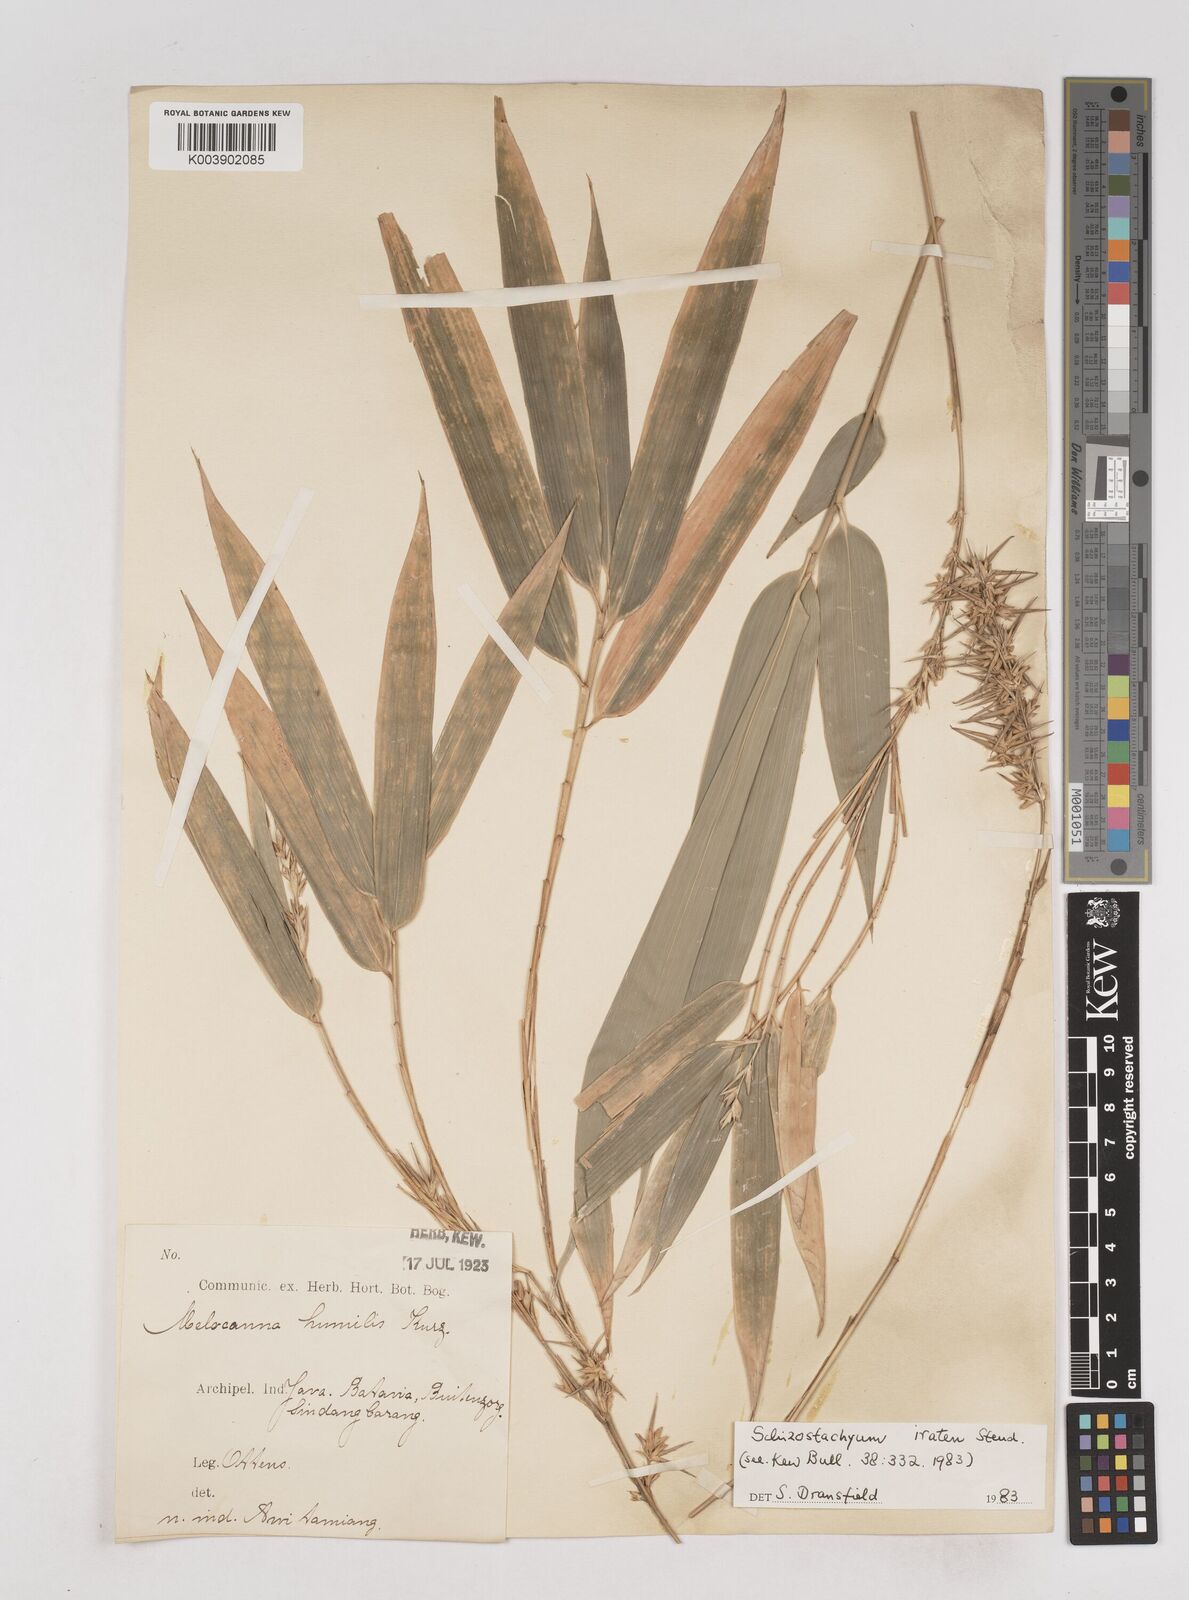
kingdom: Plantae
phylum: Tracheophyta
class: Liliopsida
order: Poales
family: Poaceae
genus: Schizostachyum
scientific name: Schizostachyum iraten
